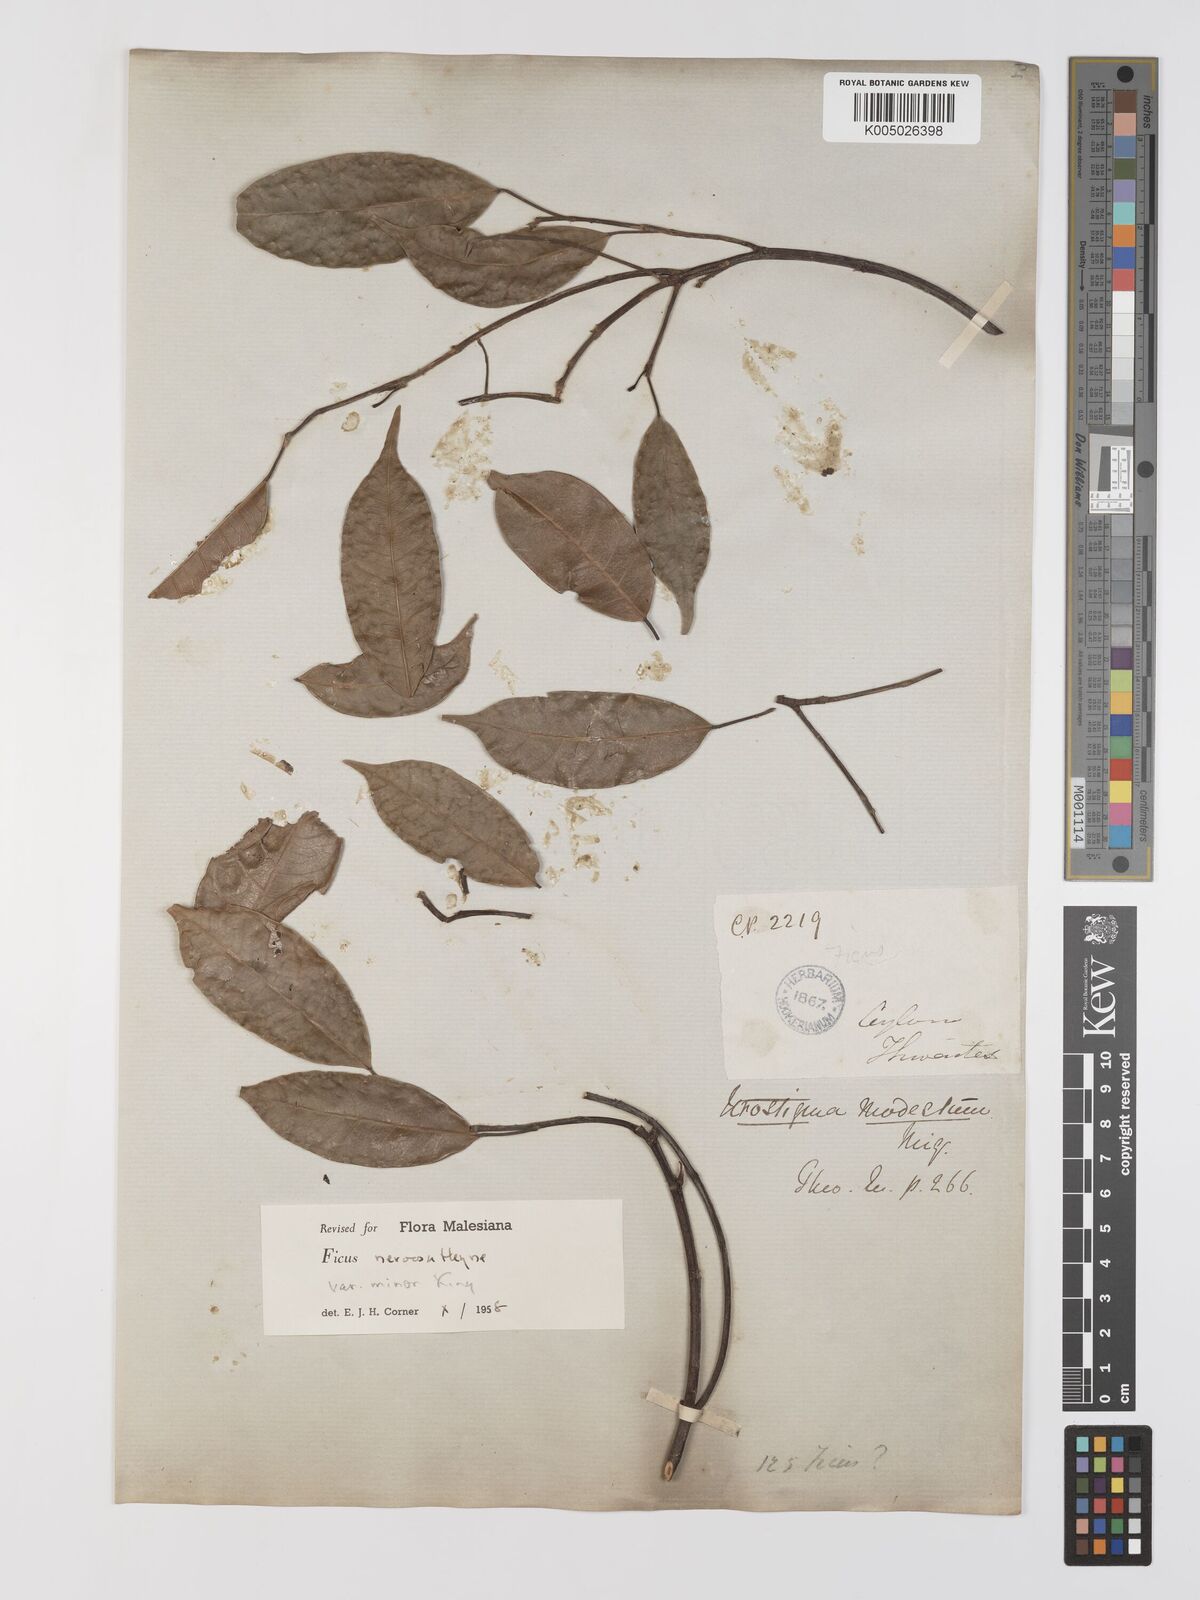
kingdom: Plantae
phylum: Tracheophyta
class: Magnoliopsida
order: Rosales
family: Moraceae
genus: Ficus
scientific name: Ficus
